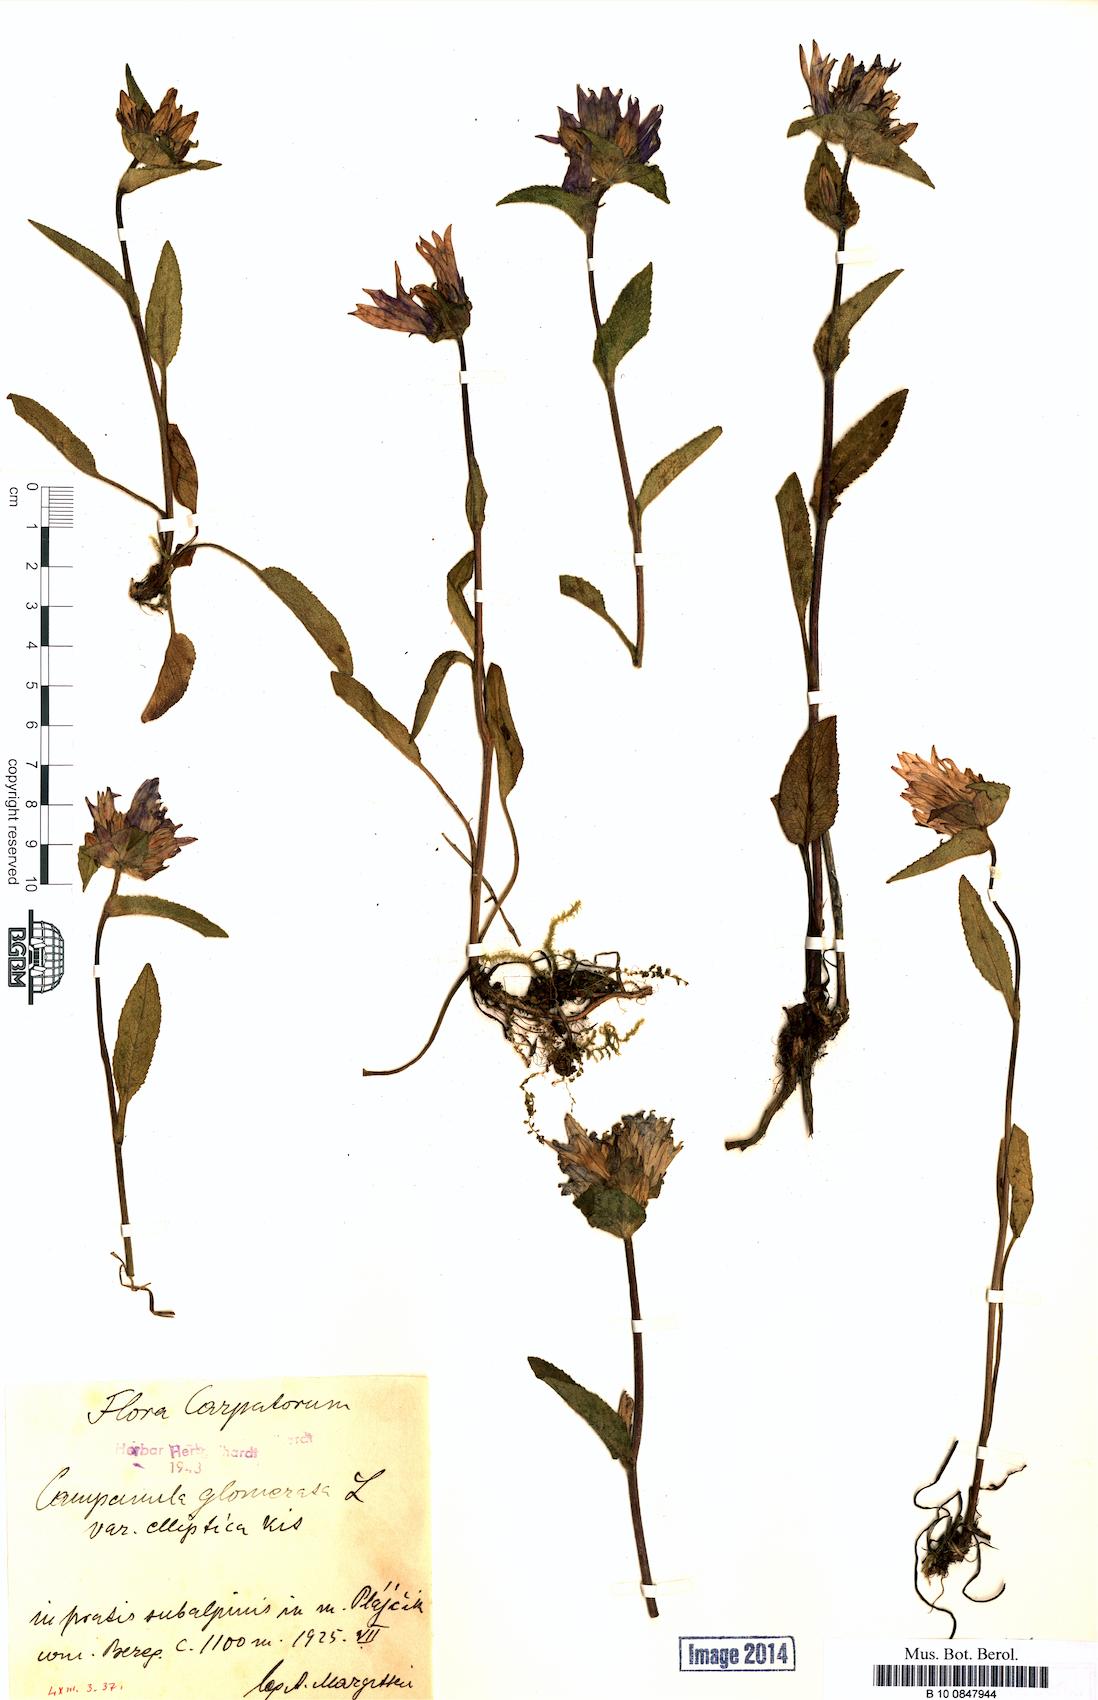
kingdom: Plantae
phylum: Tracheophyta
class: Magnoliopsida
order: Asterales
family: Campanulaceae
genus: Campanula
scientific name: Campanula glomerata
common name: Clustered bellflower
